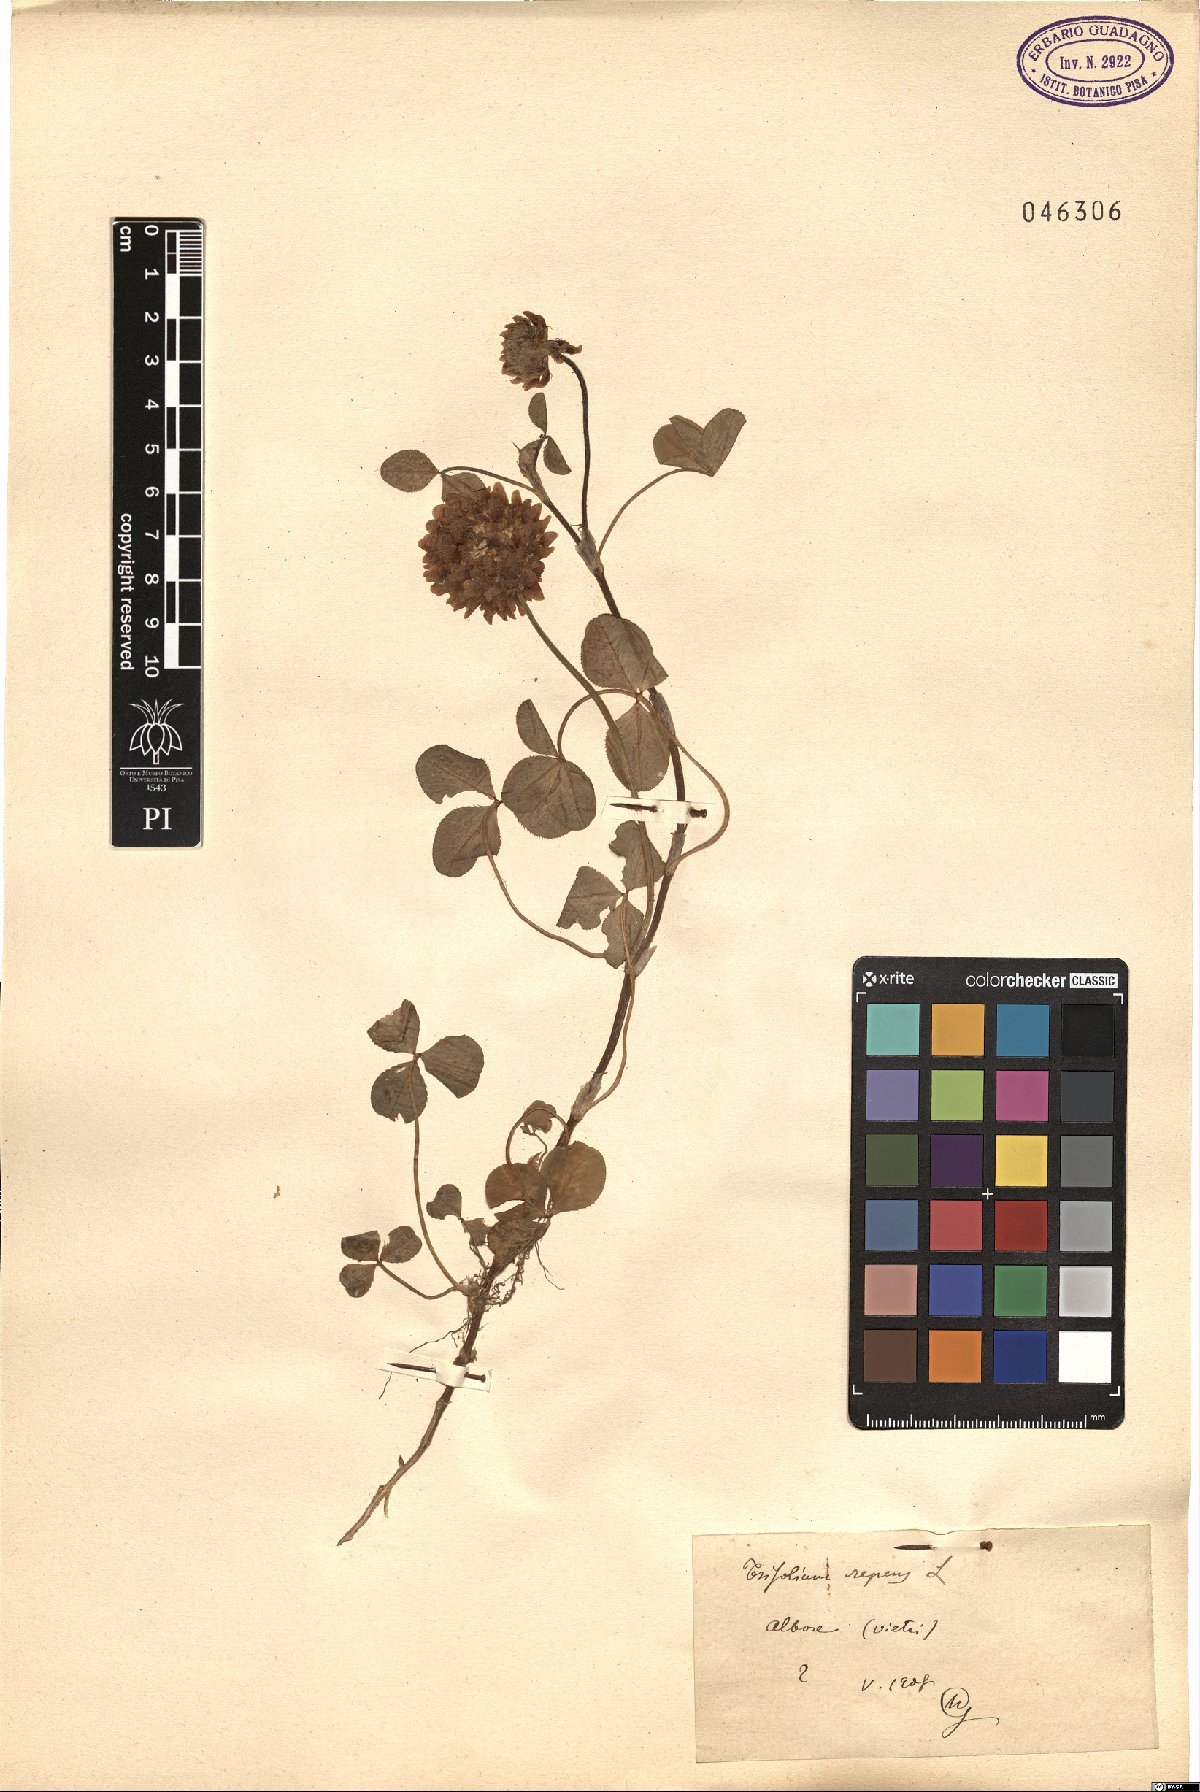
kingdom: Plantae
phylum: Tracheophyta
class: Magnoliopsida
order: Fabales
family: Fabaceae
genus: Trifolium
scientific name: Trifolium repens
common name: White clover
